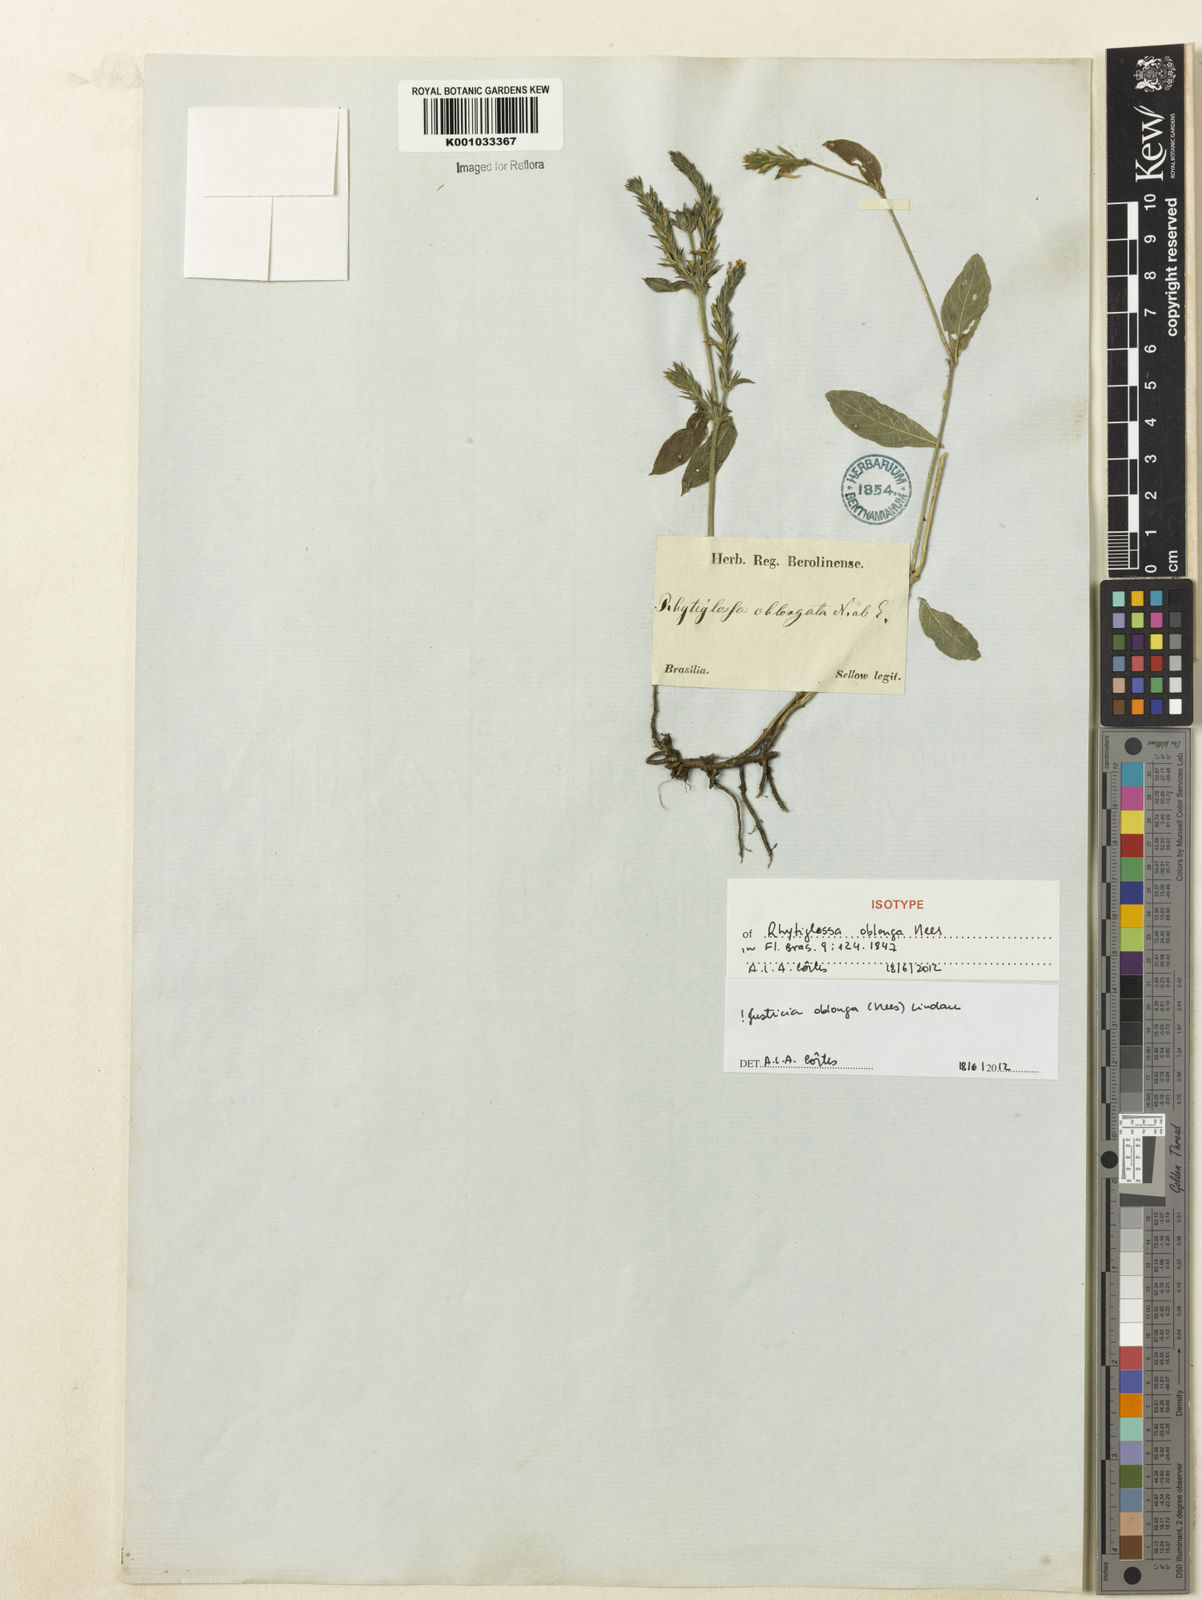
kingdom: Plantae
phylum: Tracheophyta
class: Magnoliopsida
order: Lamiales
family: Acanthaceae
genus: Dianthera
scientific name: Dianthera oblonga
